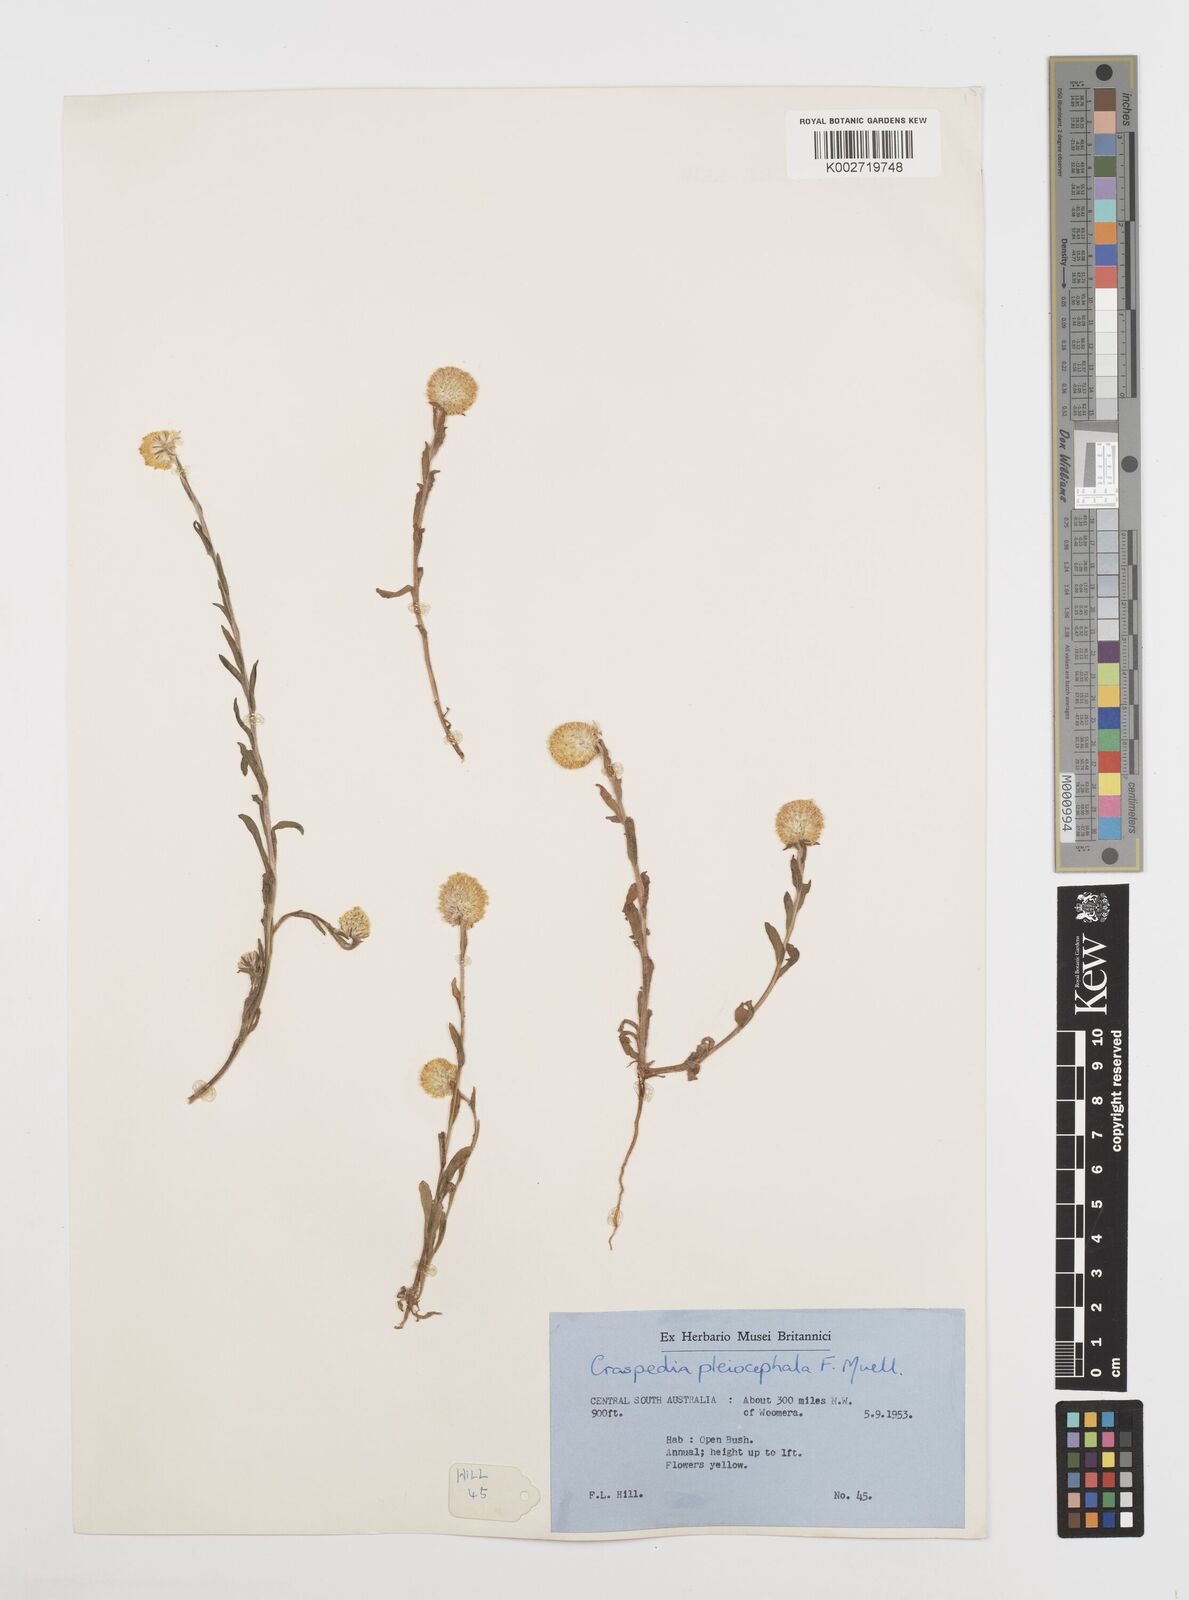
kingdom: Plantae
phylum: Tracheophyta
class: Magnoliopsida
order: Asterales
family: Asteraceae
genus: Pycnosorus
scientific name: Pycnosorus pleiocephalus
